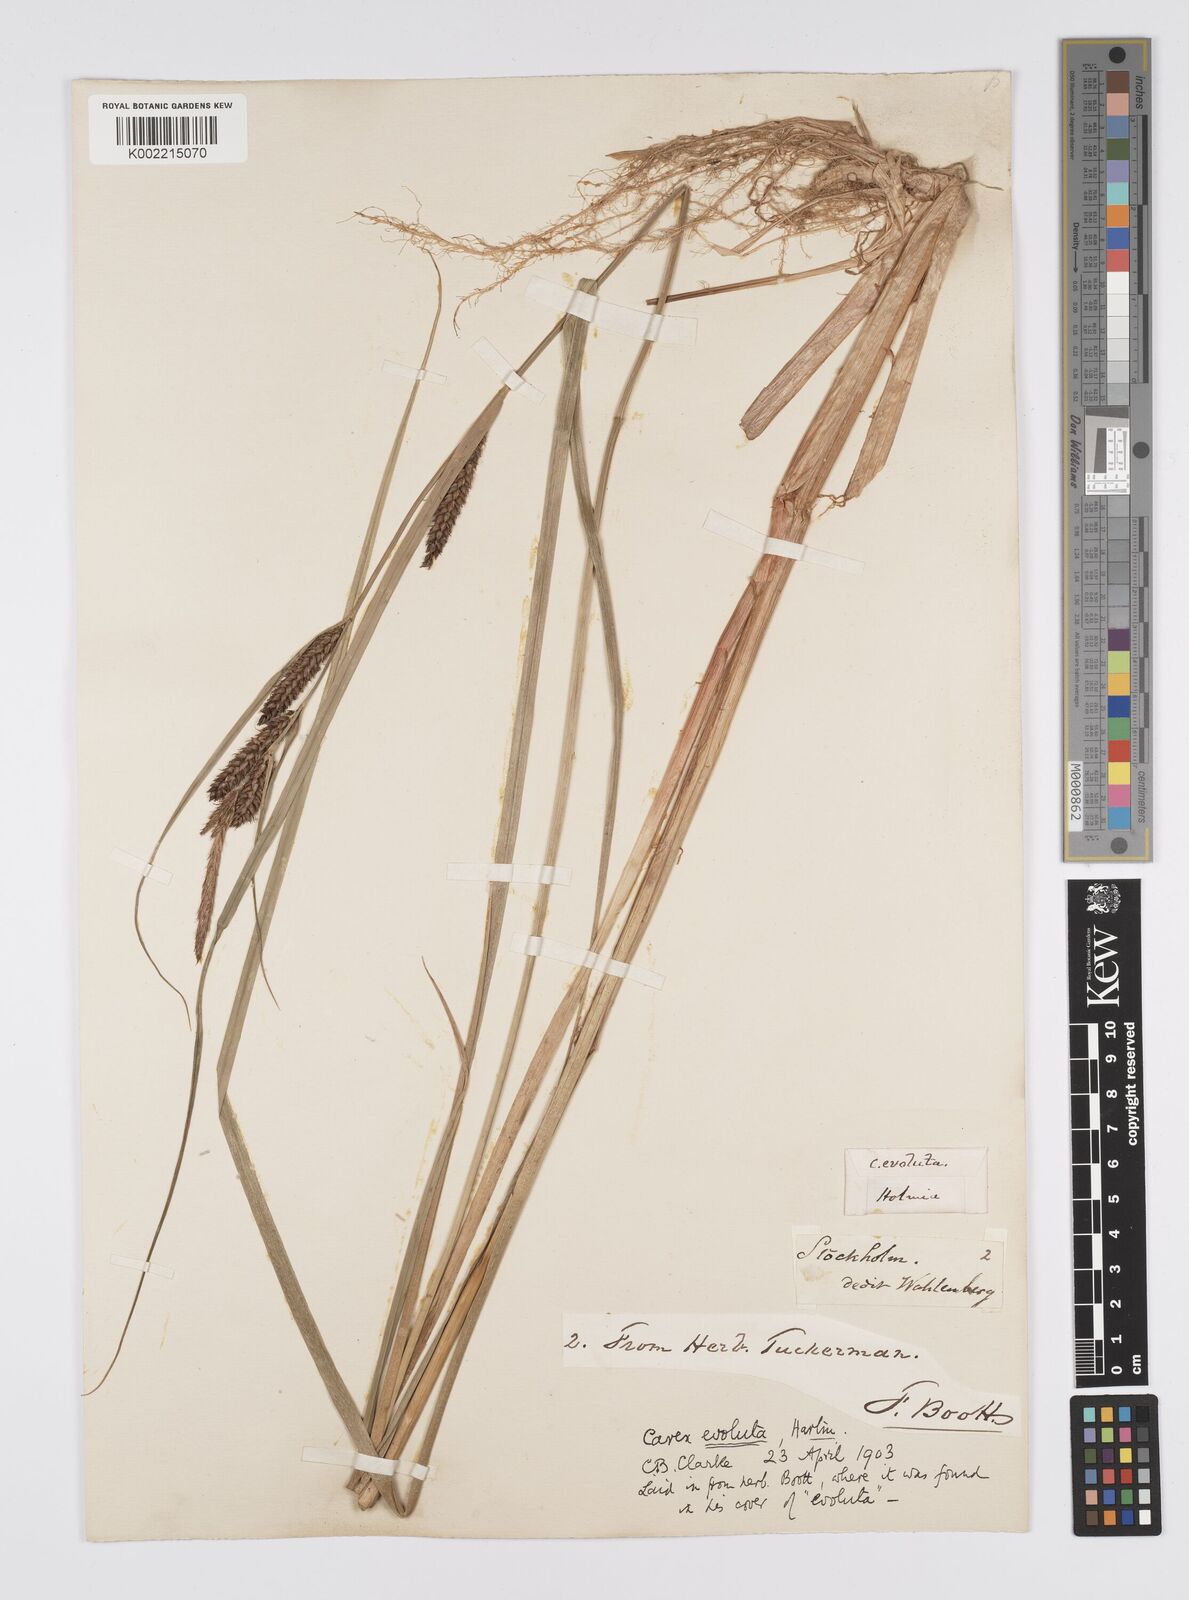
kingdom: Plantae
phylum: Tracheophyta
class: Liliopsida
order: Poales
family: Cyperaceae
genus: Carex
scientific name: Carex evoluta
